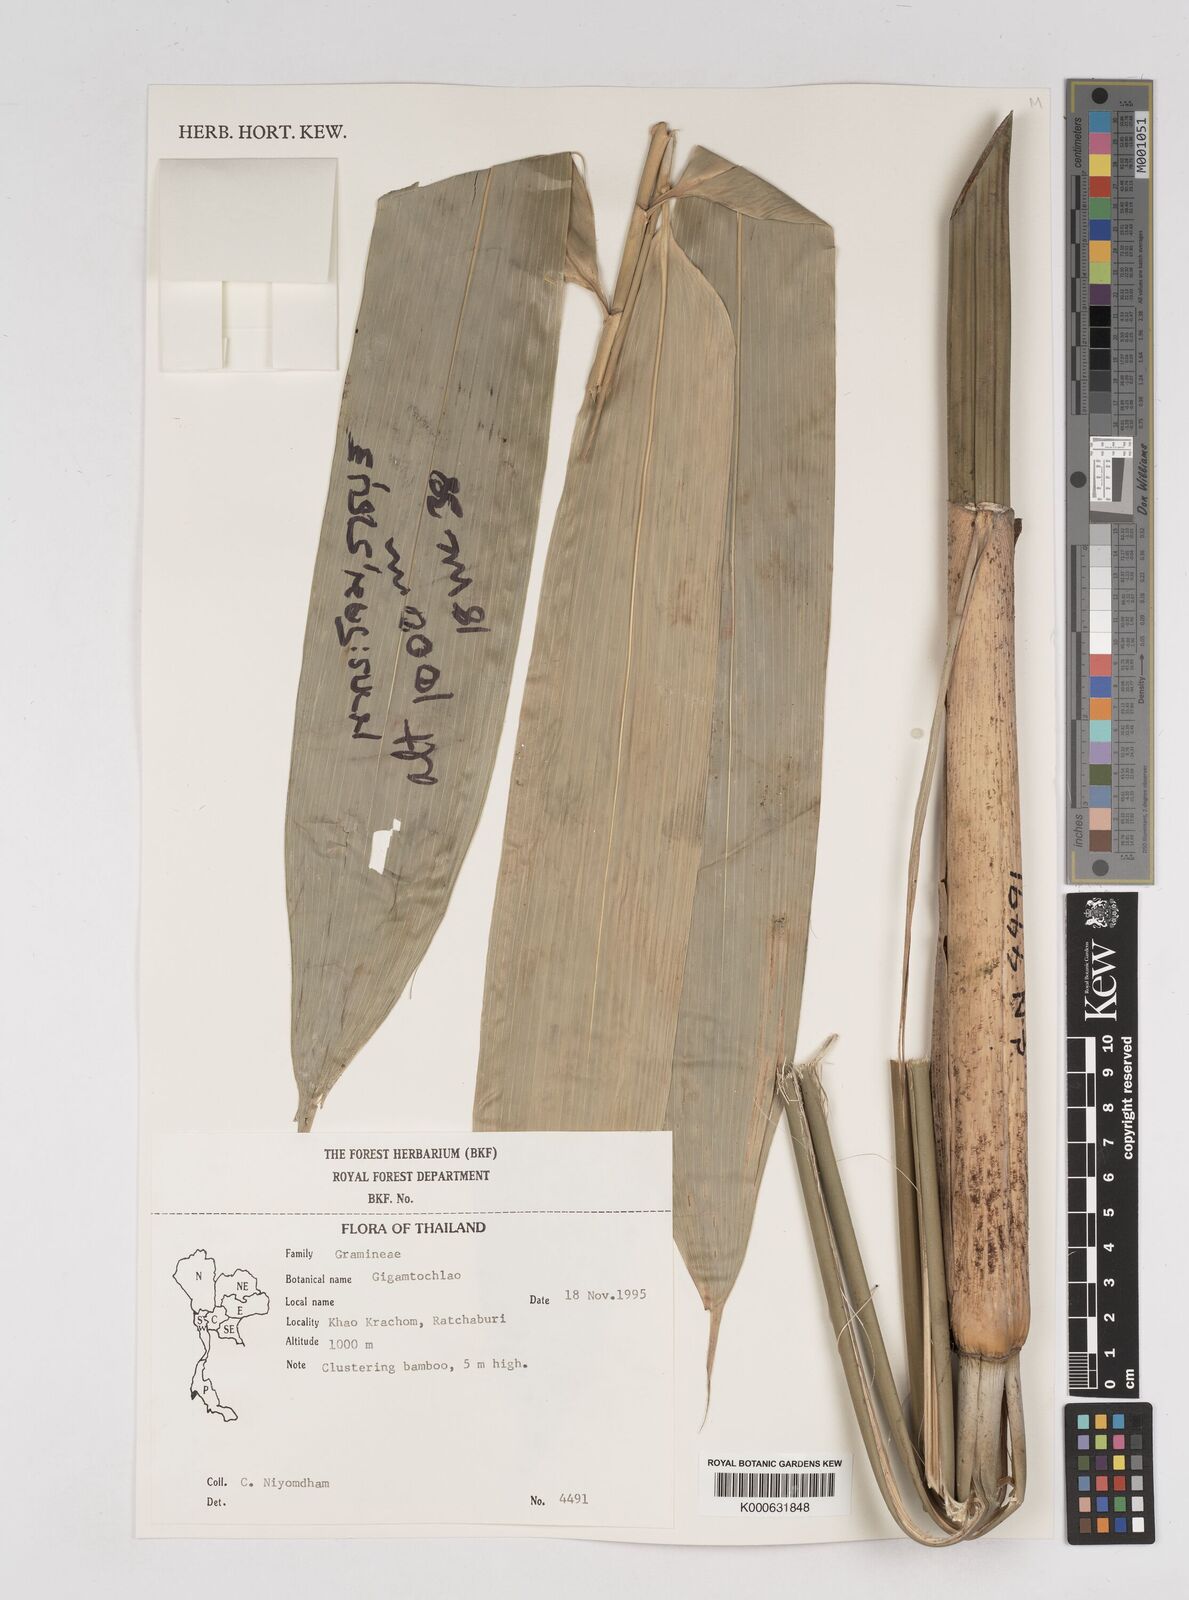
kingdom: Plantae
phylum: Tracheophyta
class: Liliopsida
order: Poales
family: Poaceae
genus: Gigantochloa
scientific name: Gigantochloa
